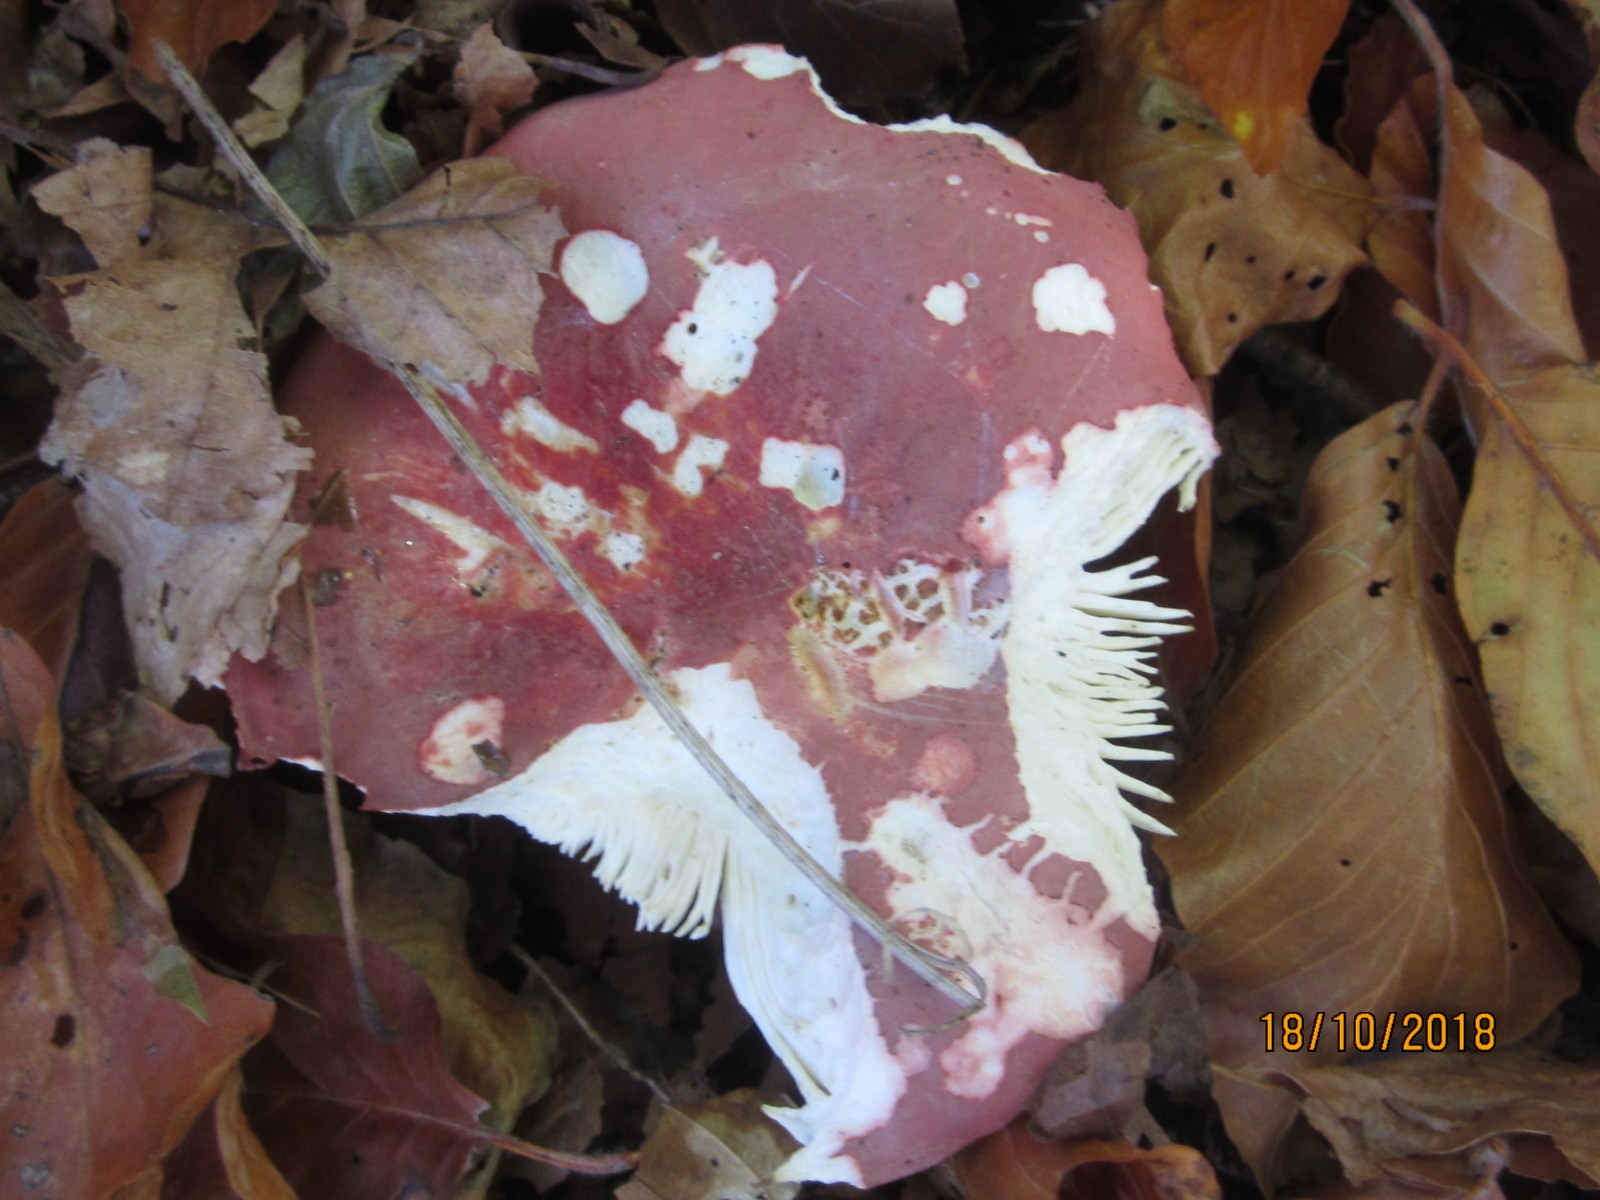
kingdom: Fungi
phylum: Basidiomycota
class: Agaricomycetes
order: Russulales
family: Russulaceae
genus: Russula
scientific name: Russula rosea
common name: fastkødet skørhat
